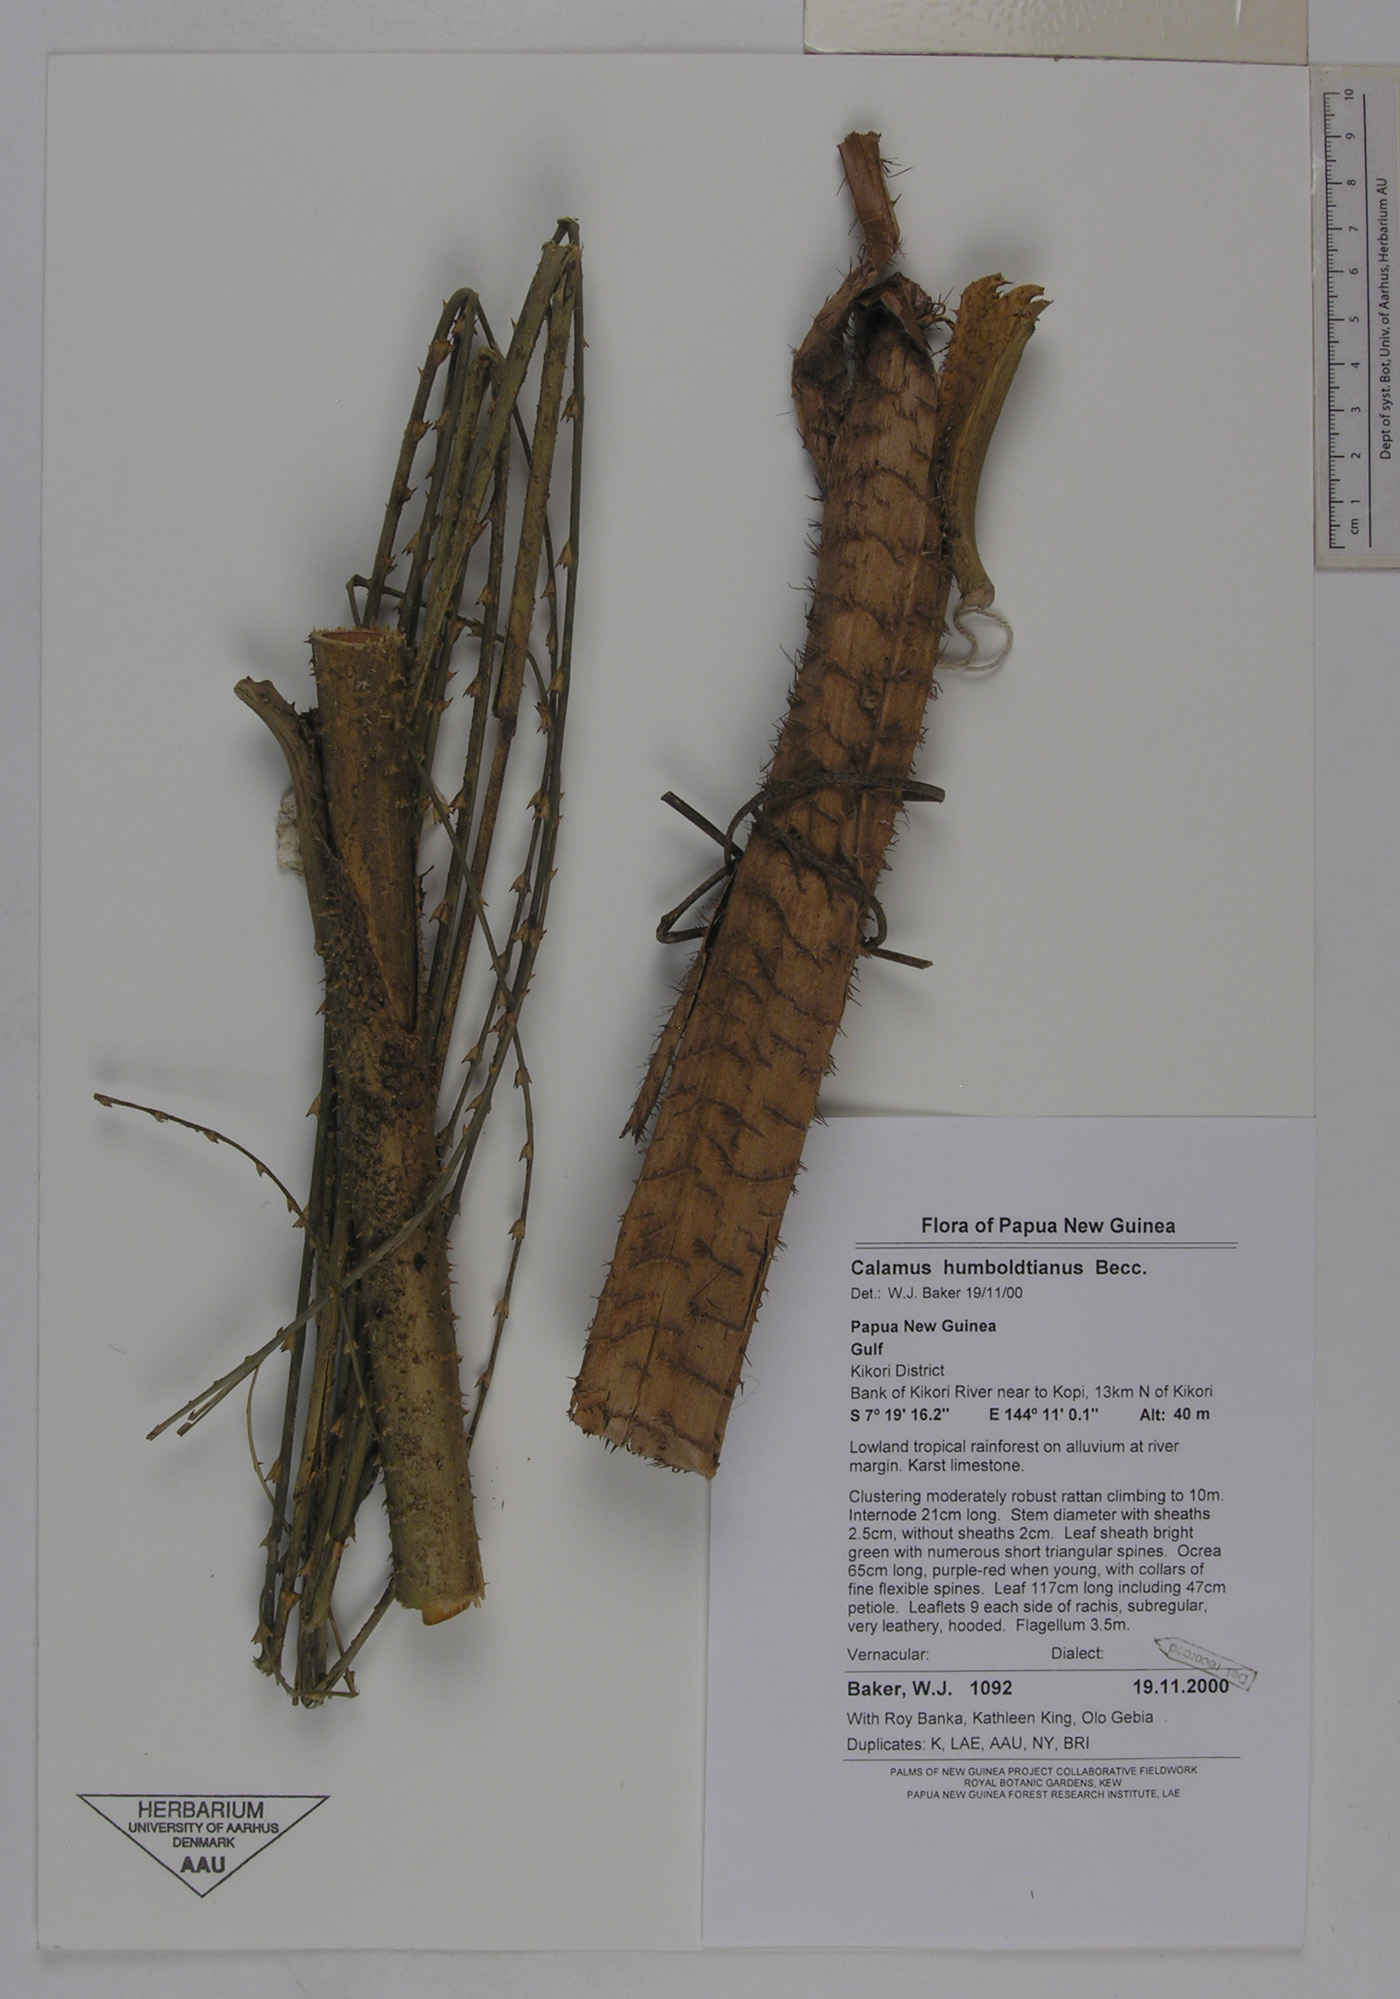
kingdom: Plantae
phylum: Tracheophyta
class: Liliopsida
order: Arecales
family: Arecaceae
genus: Calamus
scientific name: Calamus lauterbachii
